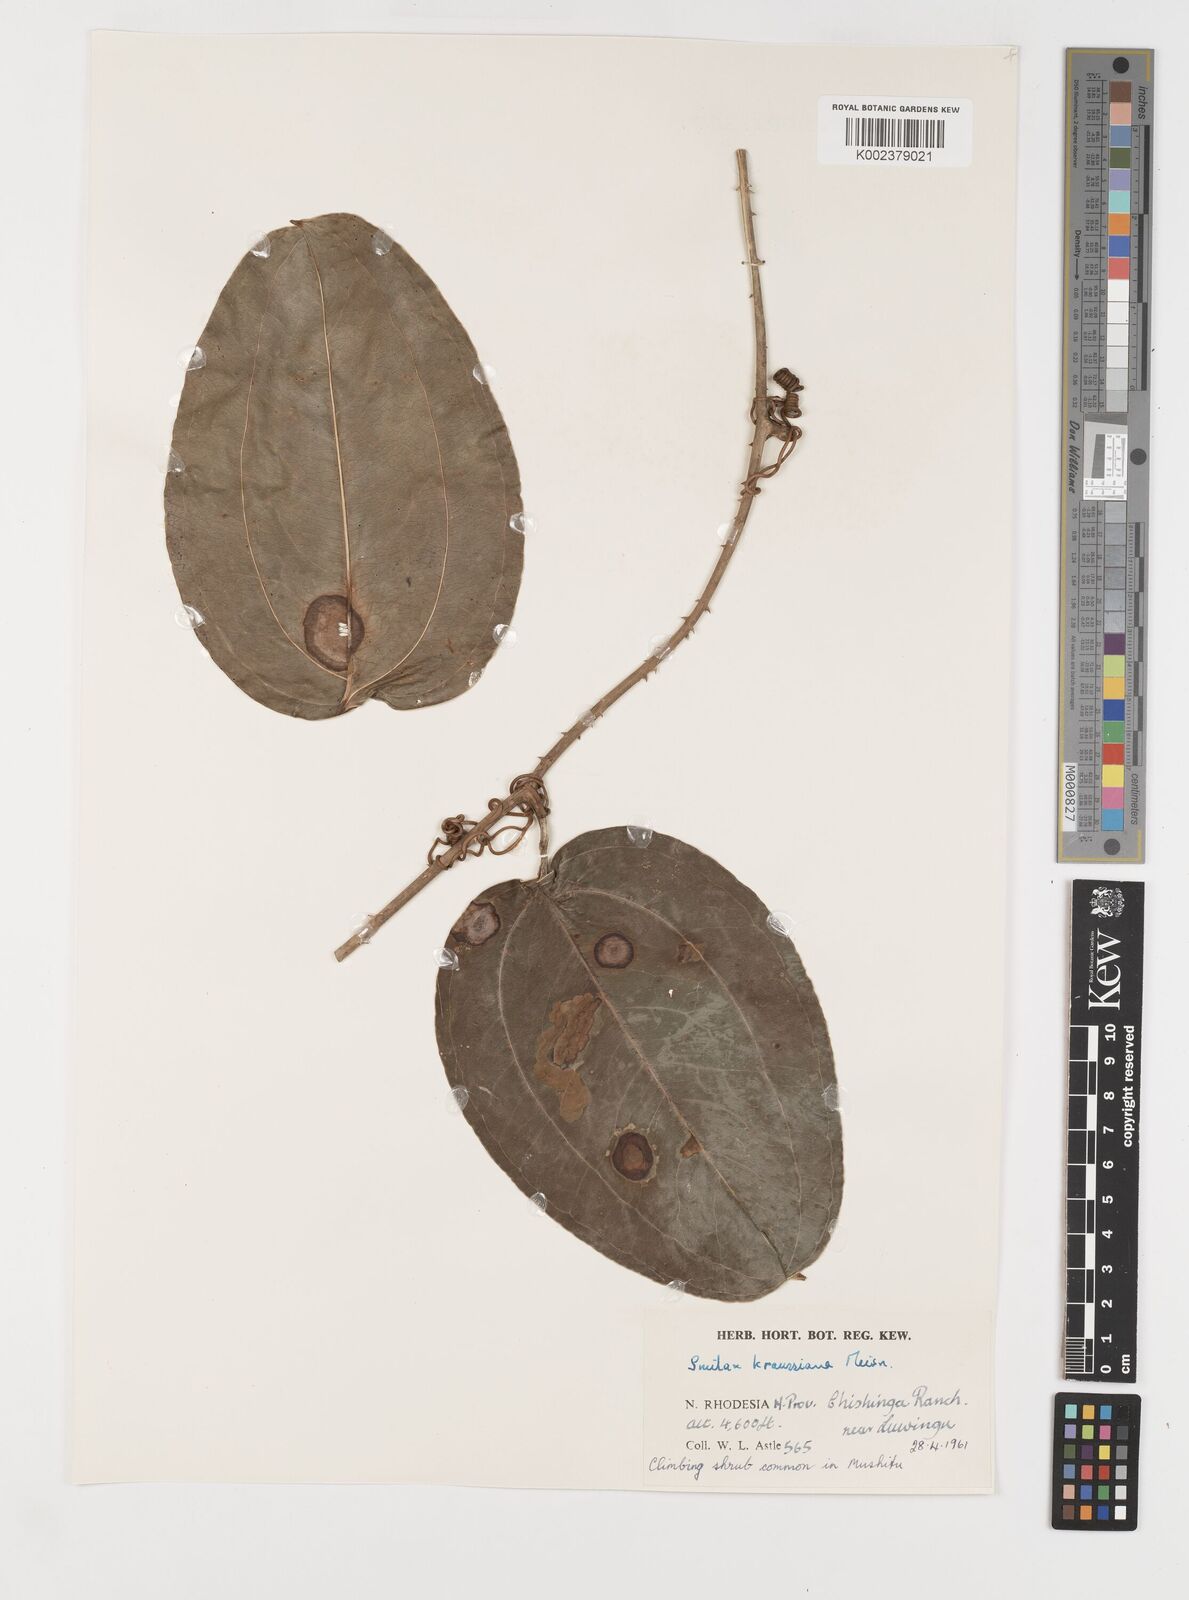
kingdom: Plantae
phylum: Tracheophyta
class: Liliopsida
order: Liliales
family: Smilacaceae
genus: Smilax
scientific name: Smilax anceps
